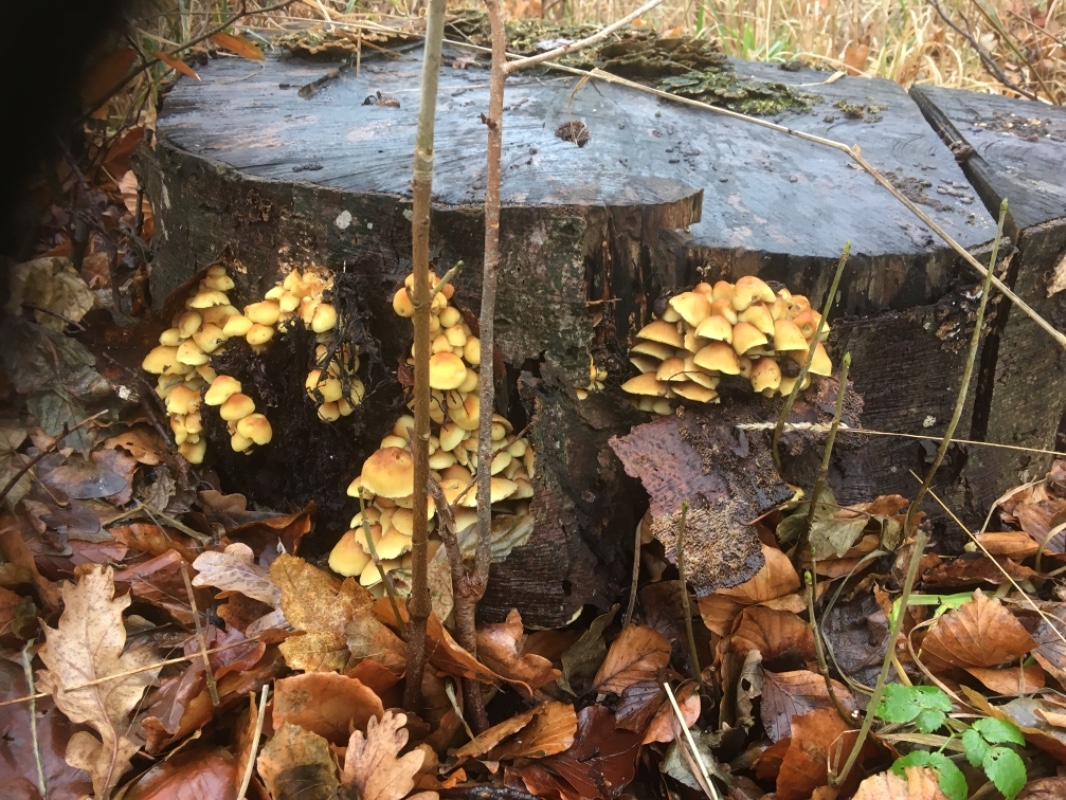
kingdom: Fungi
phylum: Basidiomycota
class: Agaricomycetes
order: Agaricales
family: Strophariaceae
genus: Hypholoma
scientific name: Hypholoma fasciculare
